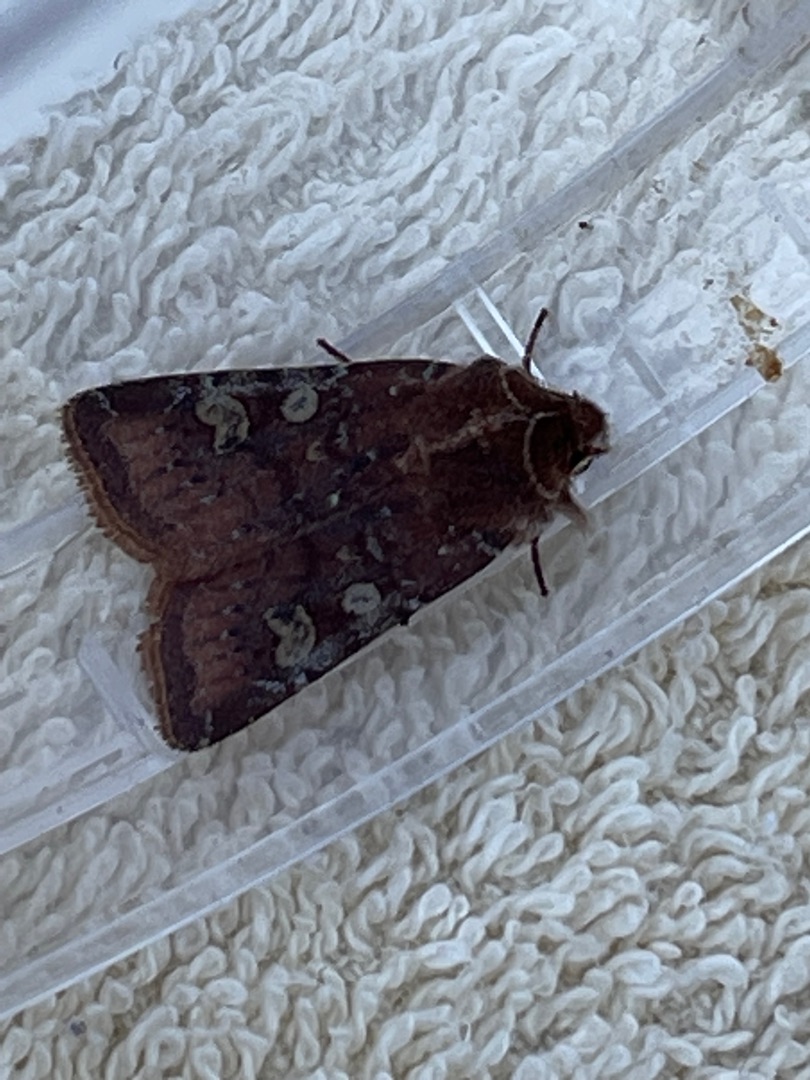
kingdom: Animalia
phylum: Arthropoda
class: Insecta
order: Lepidoptera
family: Noctuidae
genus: Cerastis
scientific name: Cerastis leucographa
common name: Hvidmærket aprilugle
